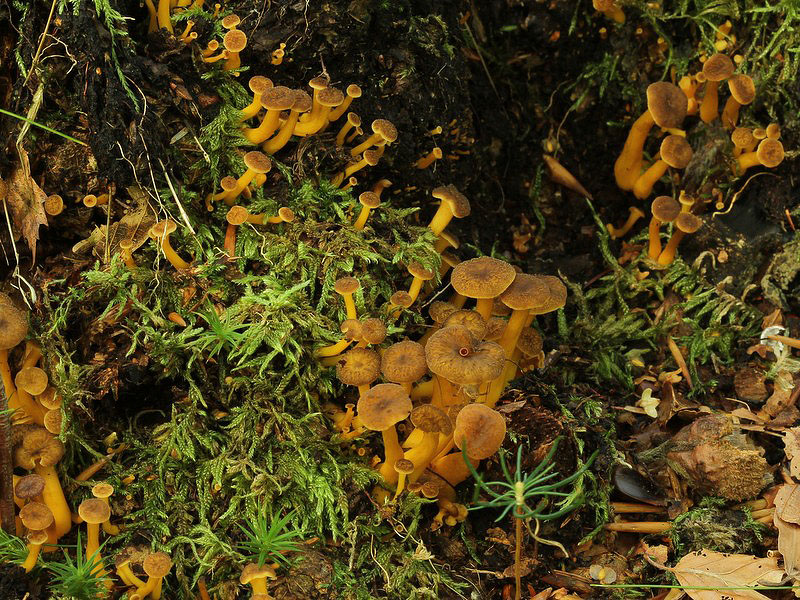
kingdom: Fungi
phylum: Basidiomycota
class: Agaricomycetes
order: Cantharellales
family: Hydnaceae
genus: Craterellus
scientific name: Craterellus tubaeformis
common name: tragt-kantarel
